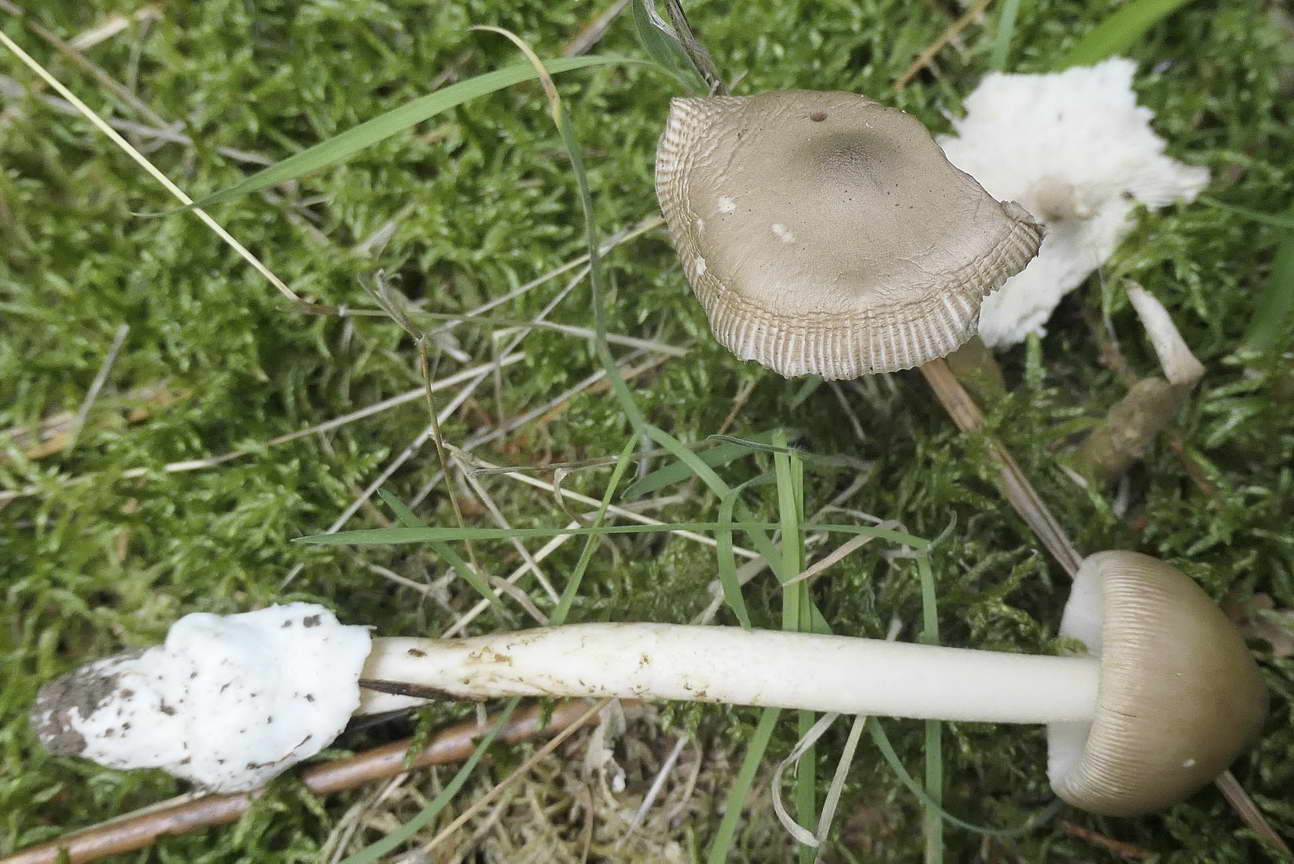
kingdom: Fungi
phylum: Basidiomycota
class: Agaricomycetes
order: Agaricales
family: Amanitaceae
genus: Amanita
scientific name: Amanita
